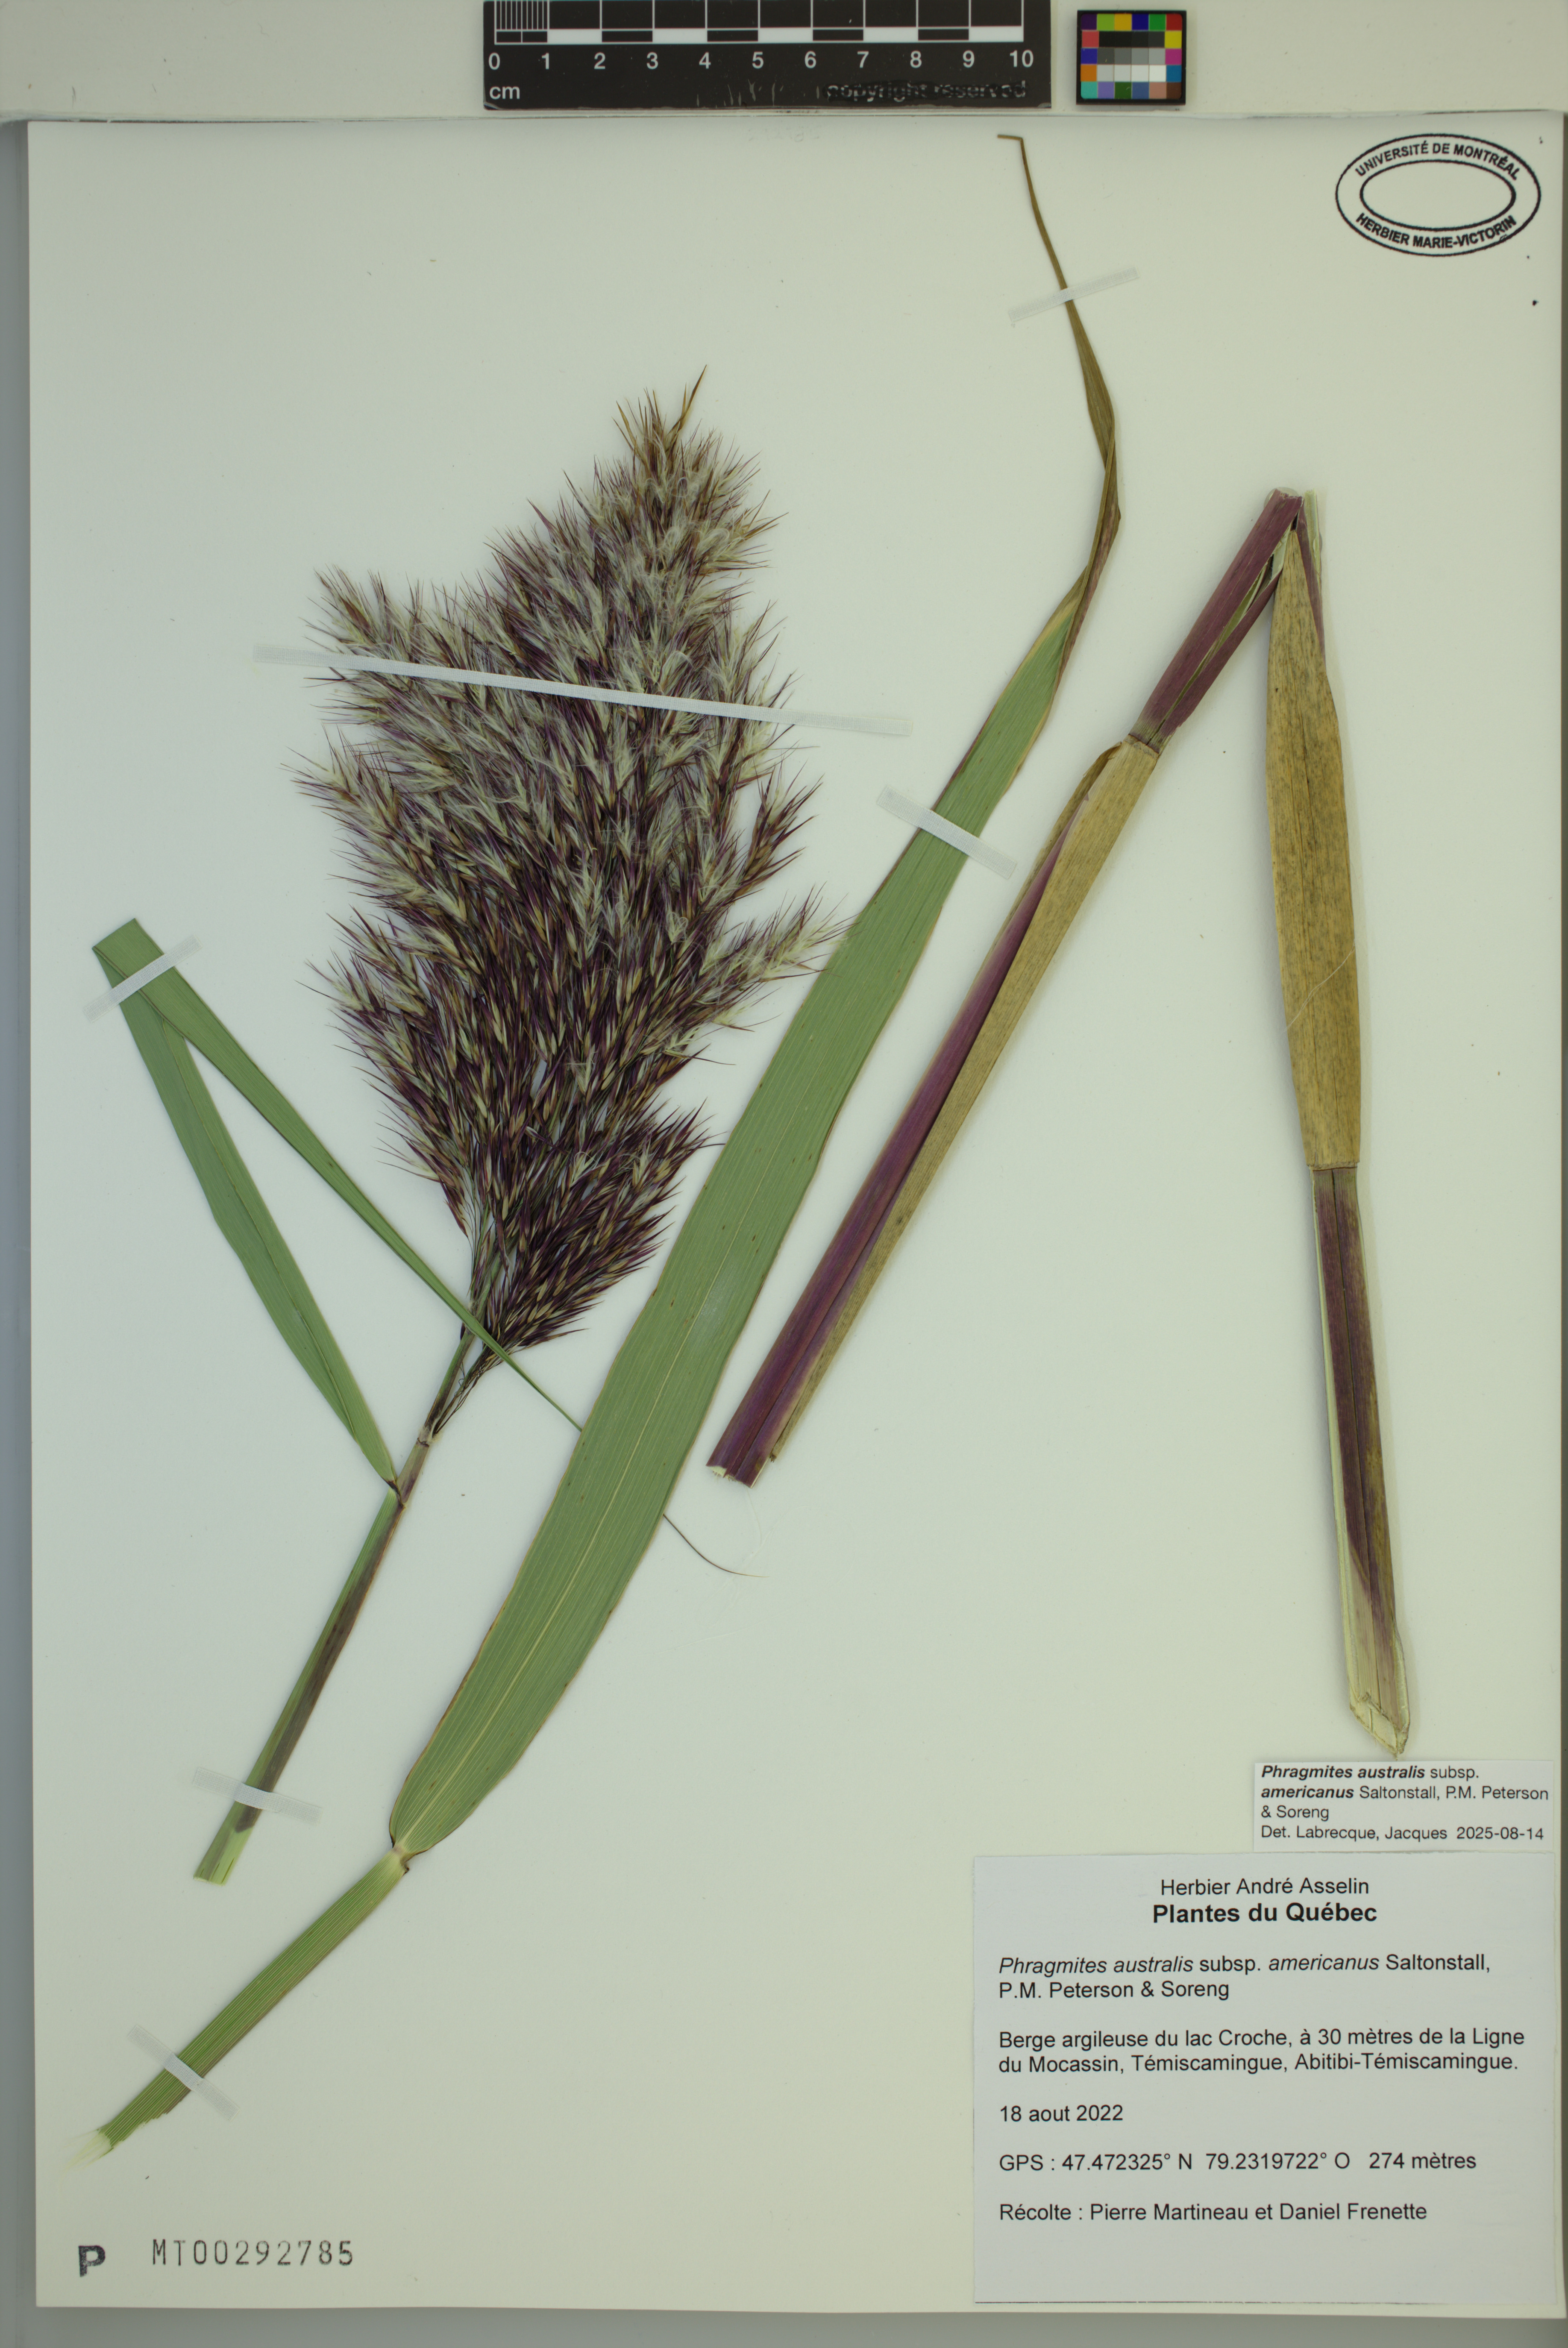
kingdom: Plantae
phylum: Tracheophyta
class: Liliopsida
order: Poales
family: Poaceae
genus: Phragmites
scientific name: Phragmites australis
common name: Common reed
